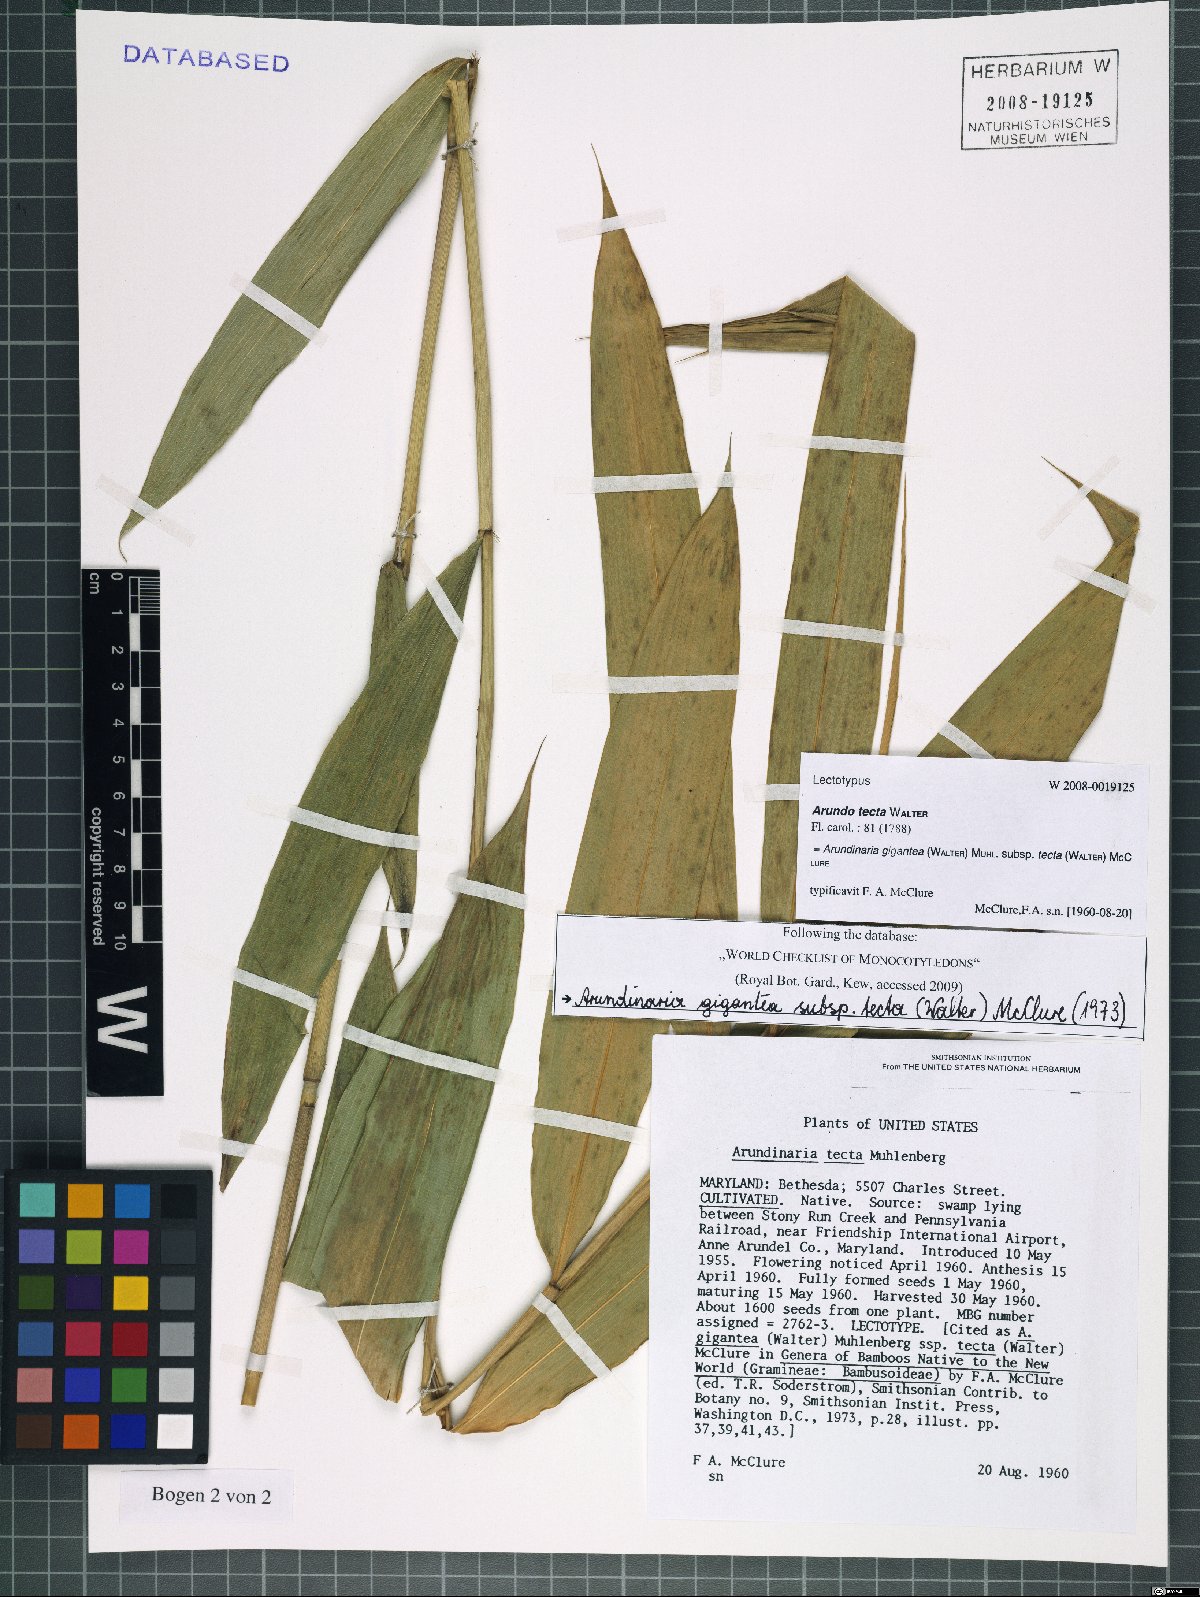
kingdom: Plantae
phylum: Tracheophyta
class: Liliopsida
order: Poales
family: Poaceae
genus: Arundinaria
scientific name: Arundinaria tecta
